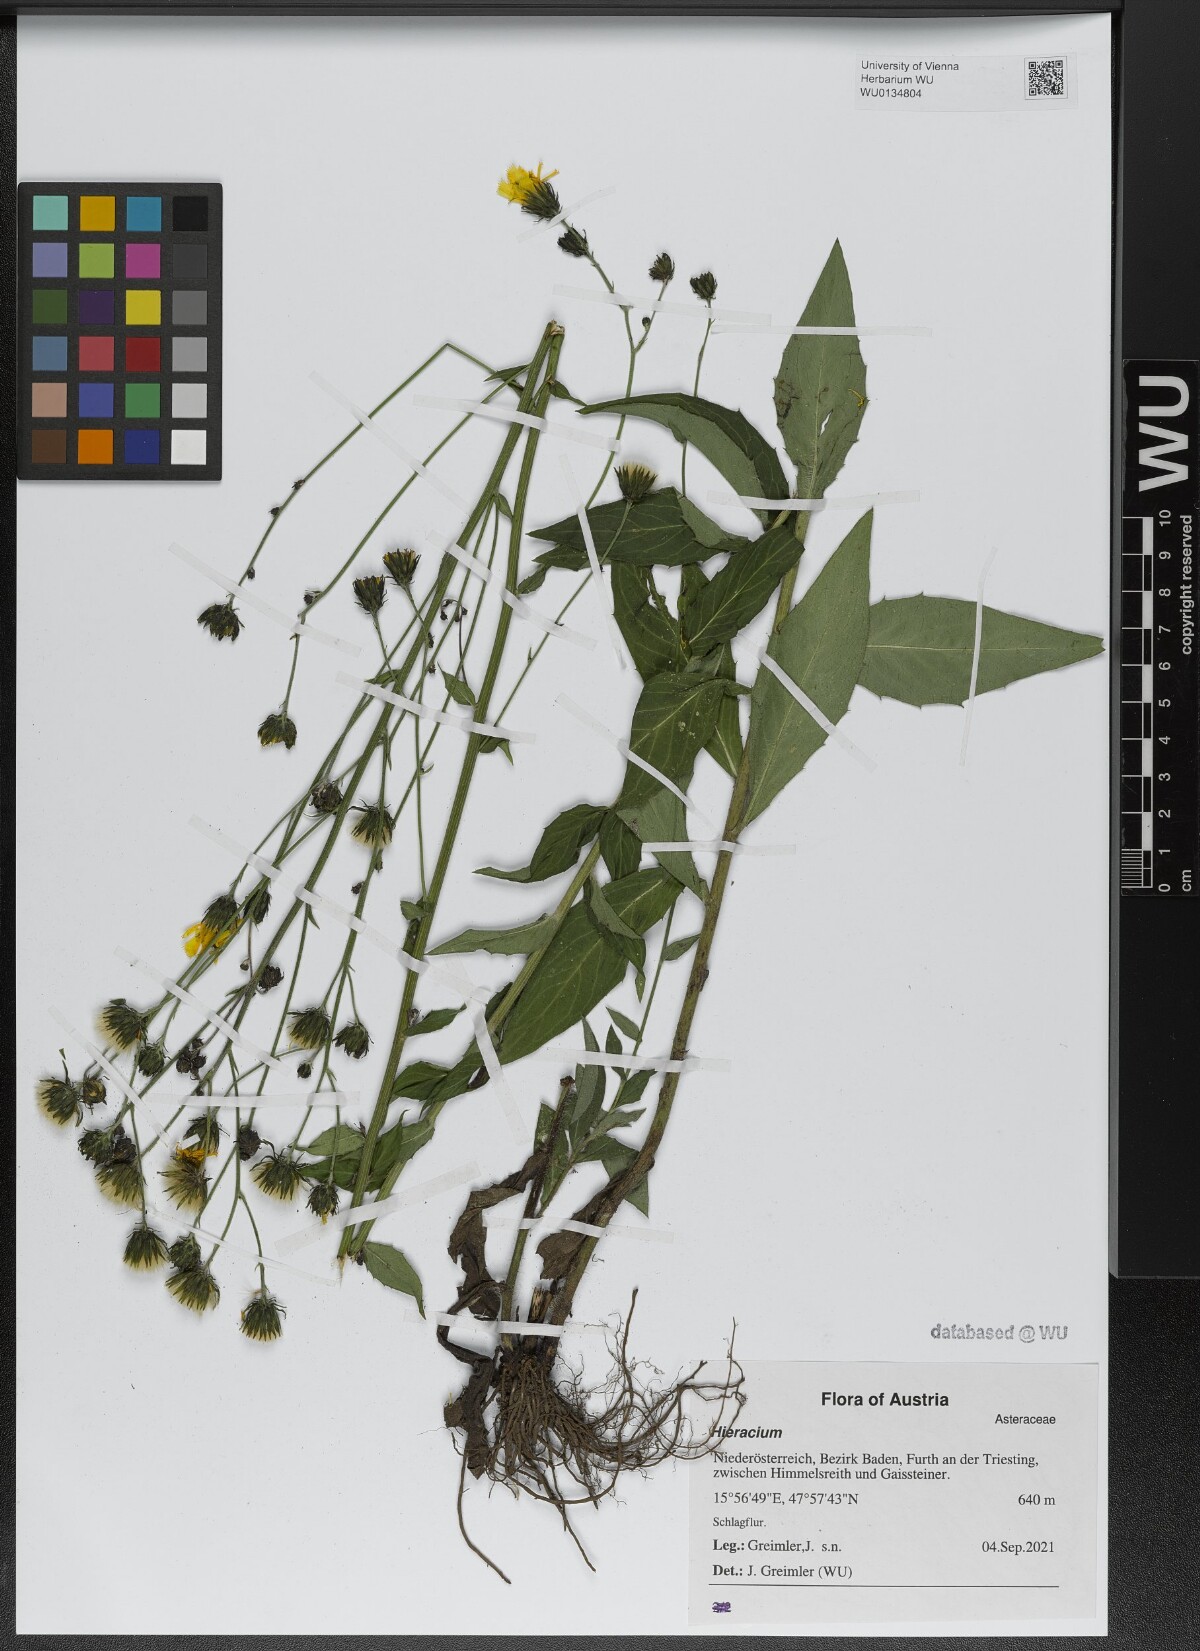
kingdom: Plantae
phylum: Tracheophyta
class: Magnoliopsida
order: Asterales
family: Asteraceae
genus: Hieracium
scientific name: Hieracium sabaudum
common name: New england hawkweed
